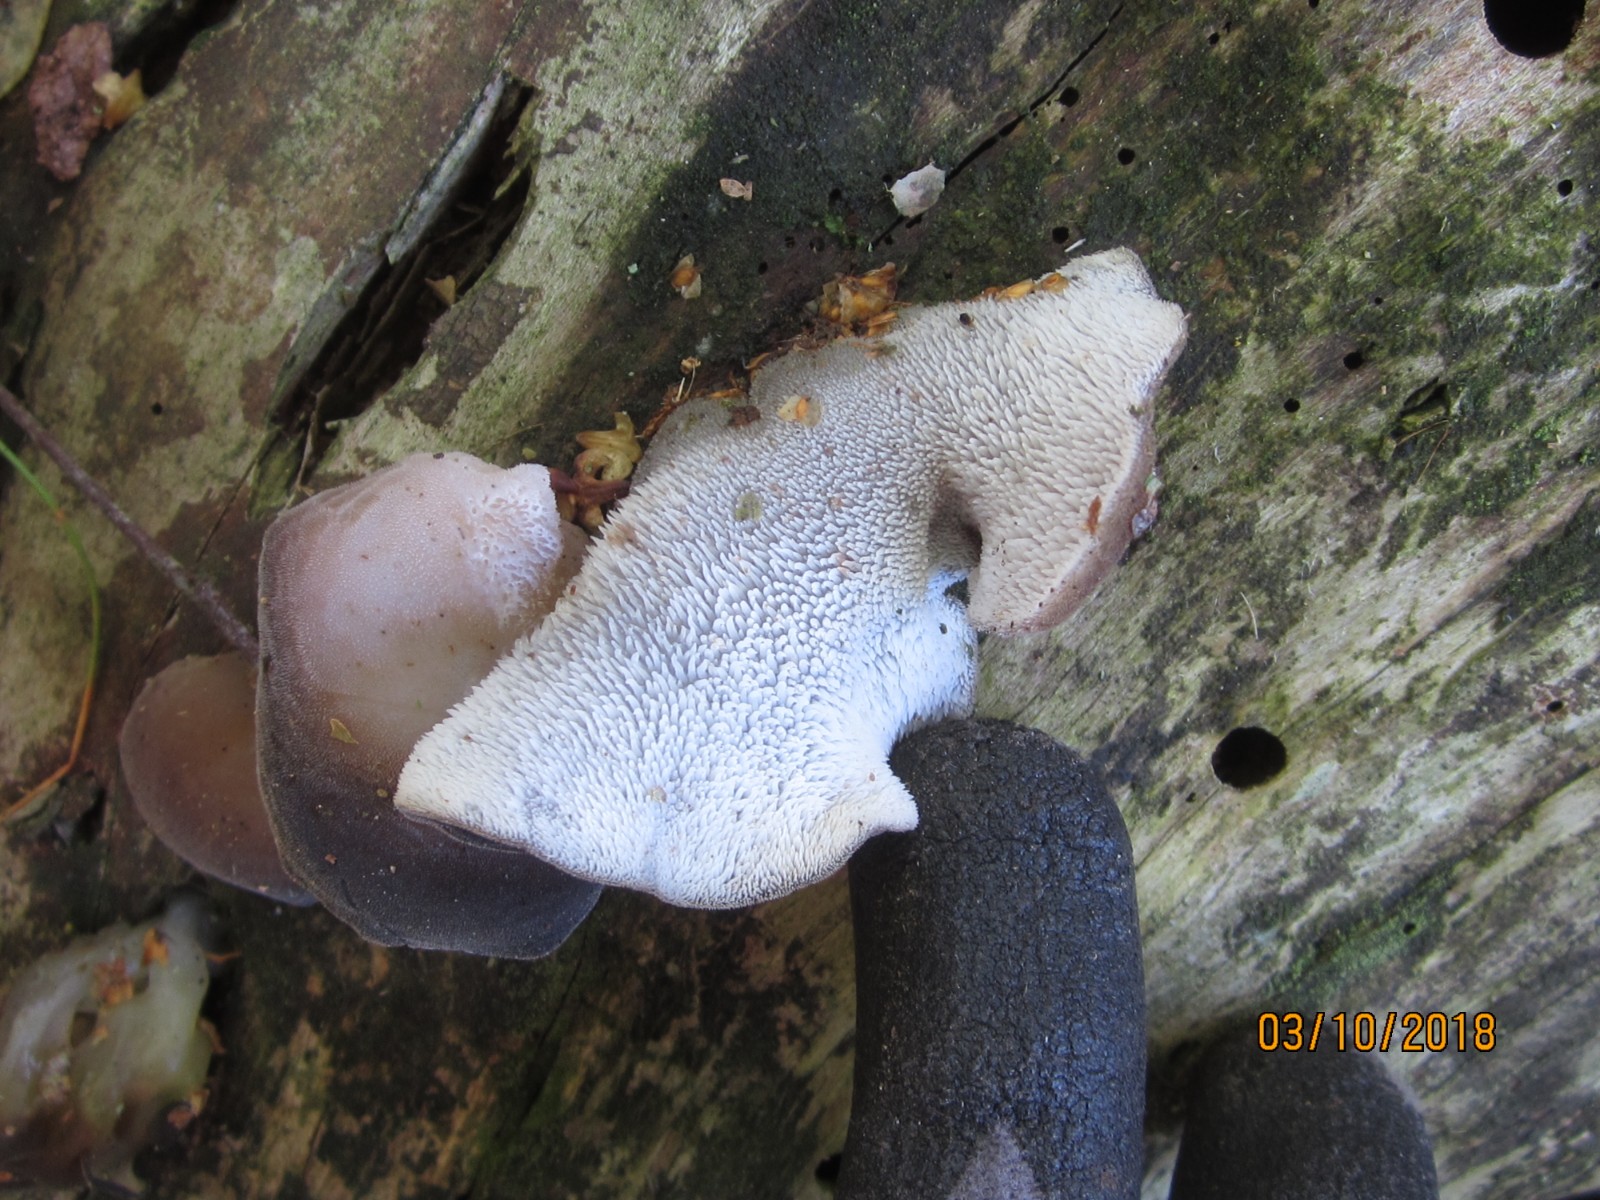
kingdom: Fungi
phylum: Basidiomycota
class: Agaricomycetes
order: Auriculariales
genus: Pseudohydnum
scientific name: Pseudohydnum gelatinosum
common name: bævretand
